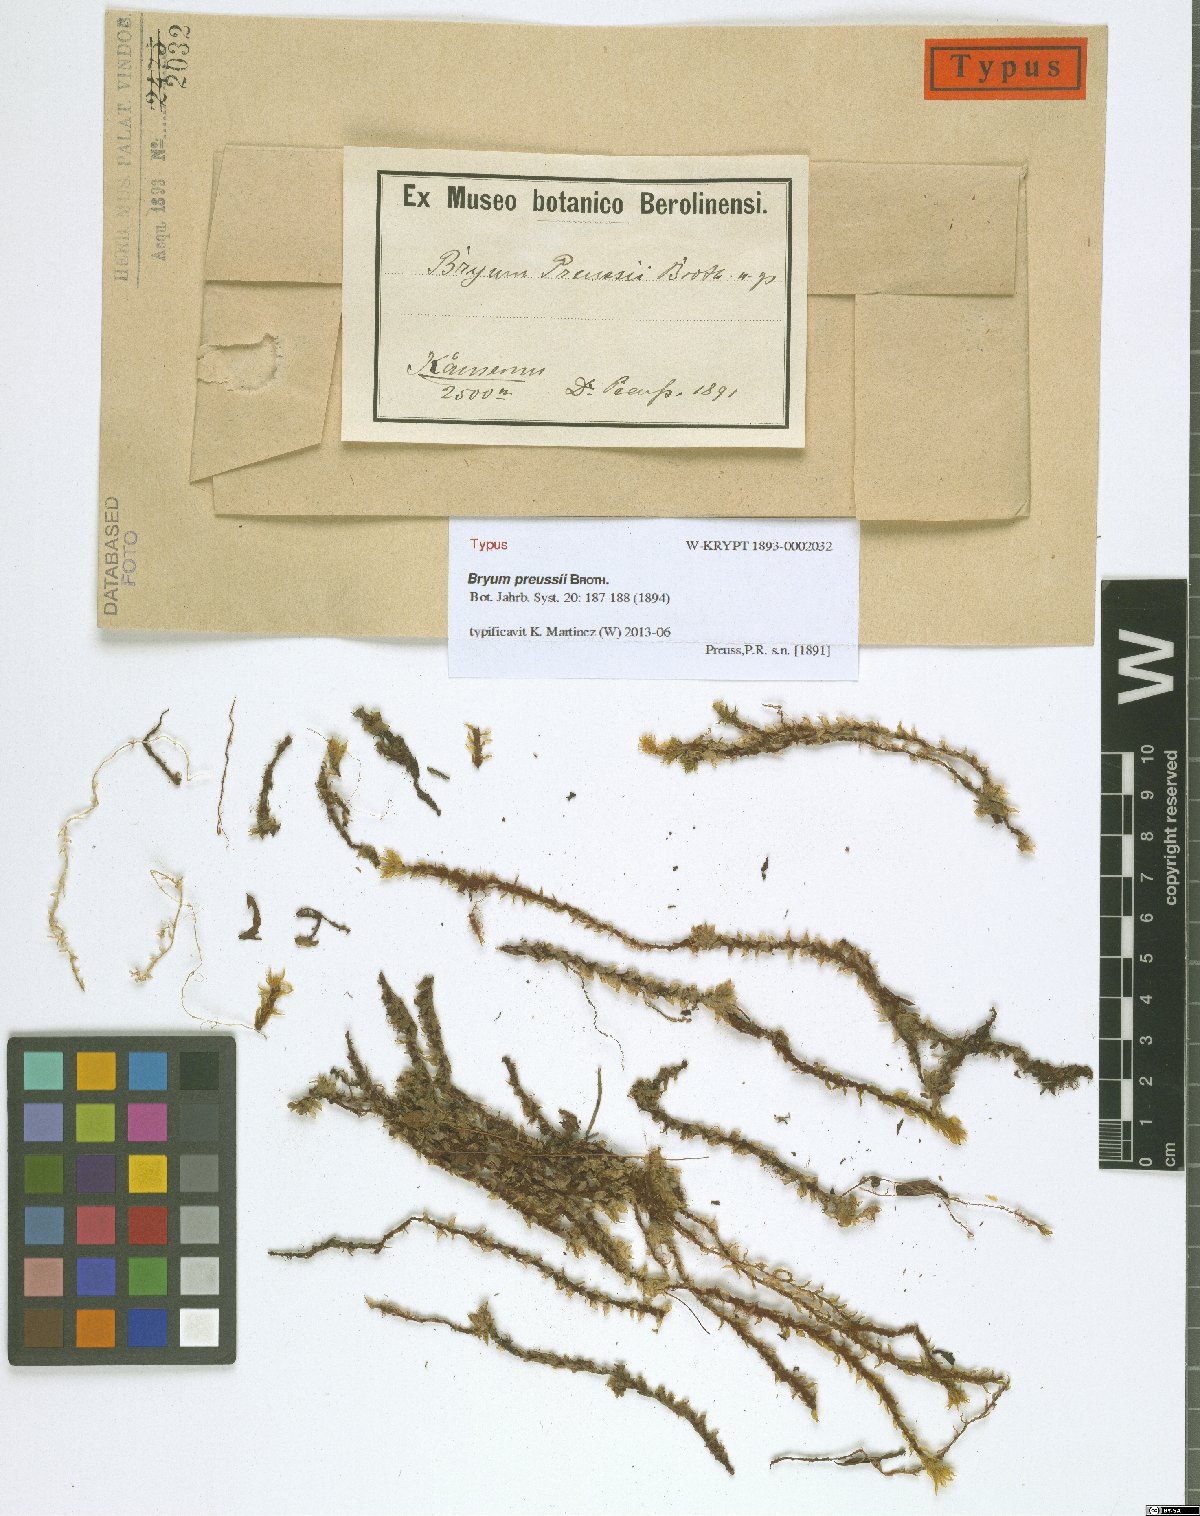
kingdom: Plantae
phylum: Bryophyta
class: Bryopsida
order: Bryales
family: Bryaceae
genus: Rhodobryum
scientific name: Rhodobryum preussii
